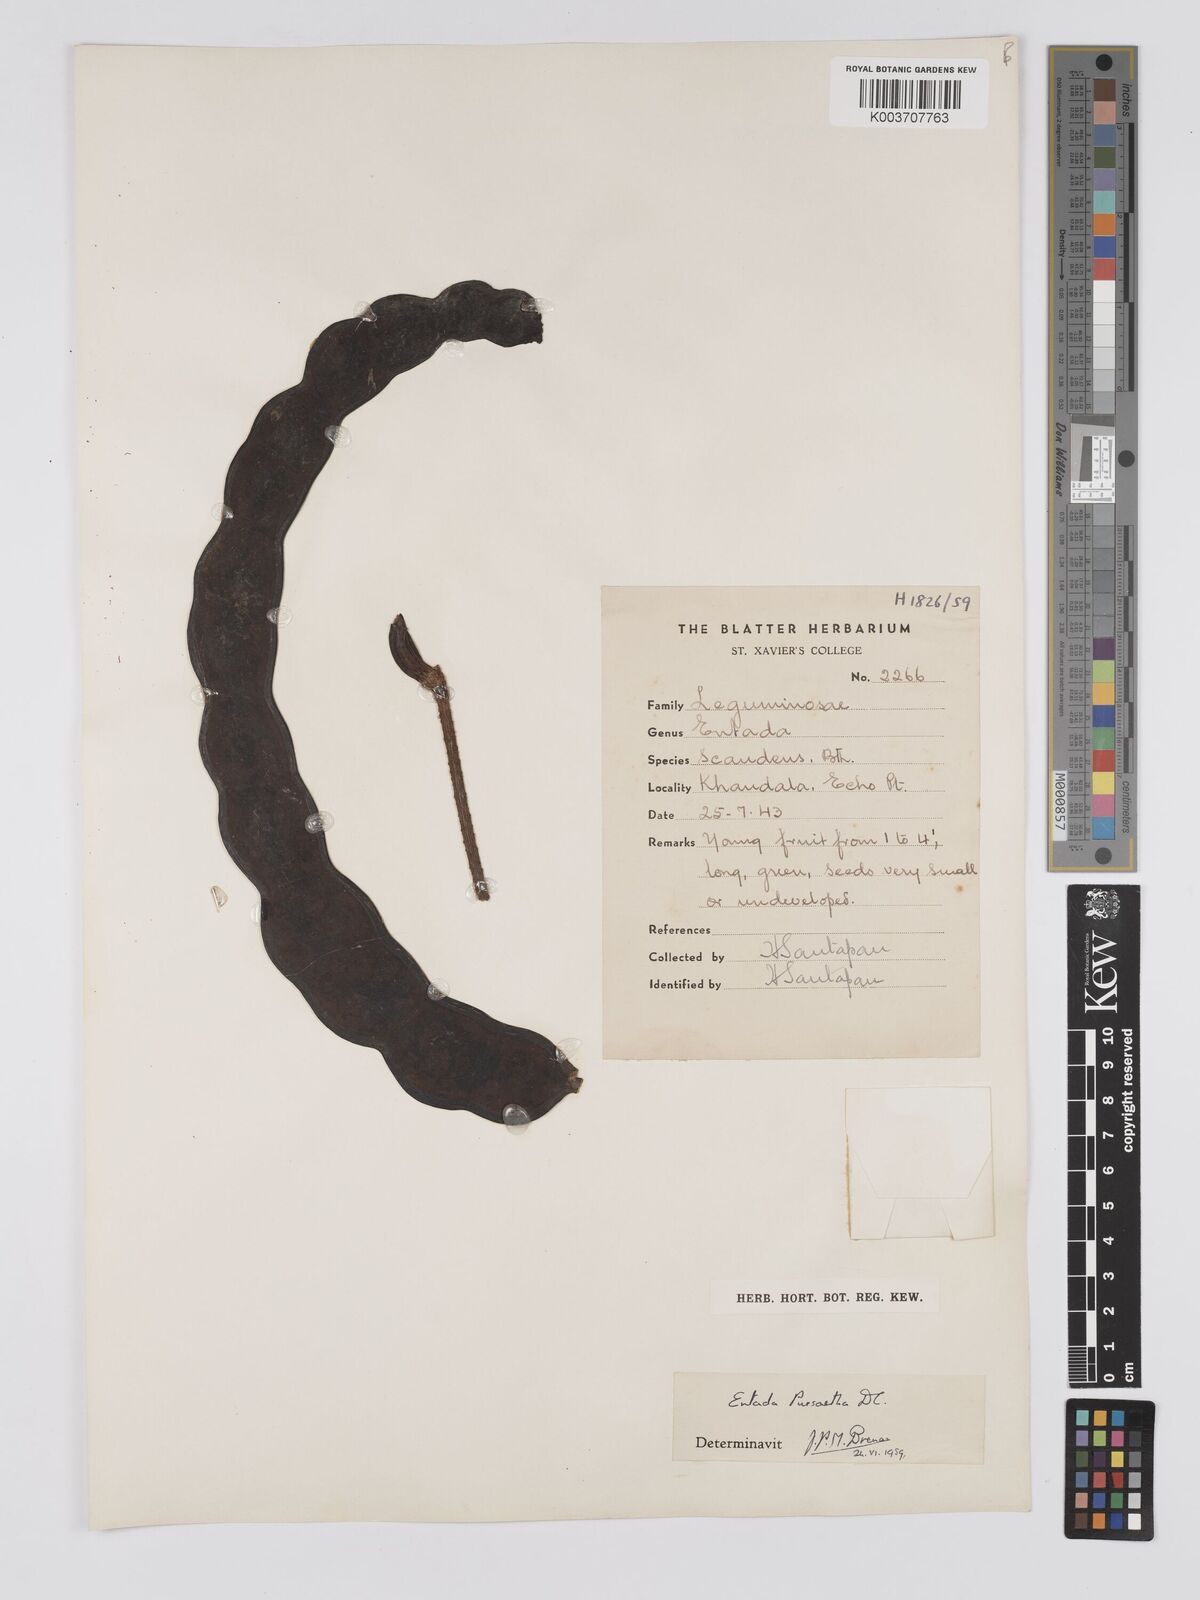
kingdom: Plantae
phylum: Tracheophyta
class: Magnoliopsida
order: Fabales
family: Fabaceae
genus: Entada
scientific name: Entada rheedei
